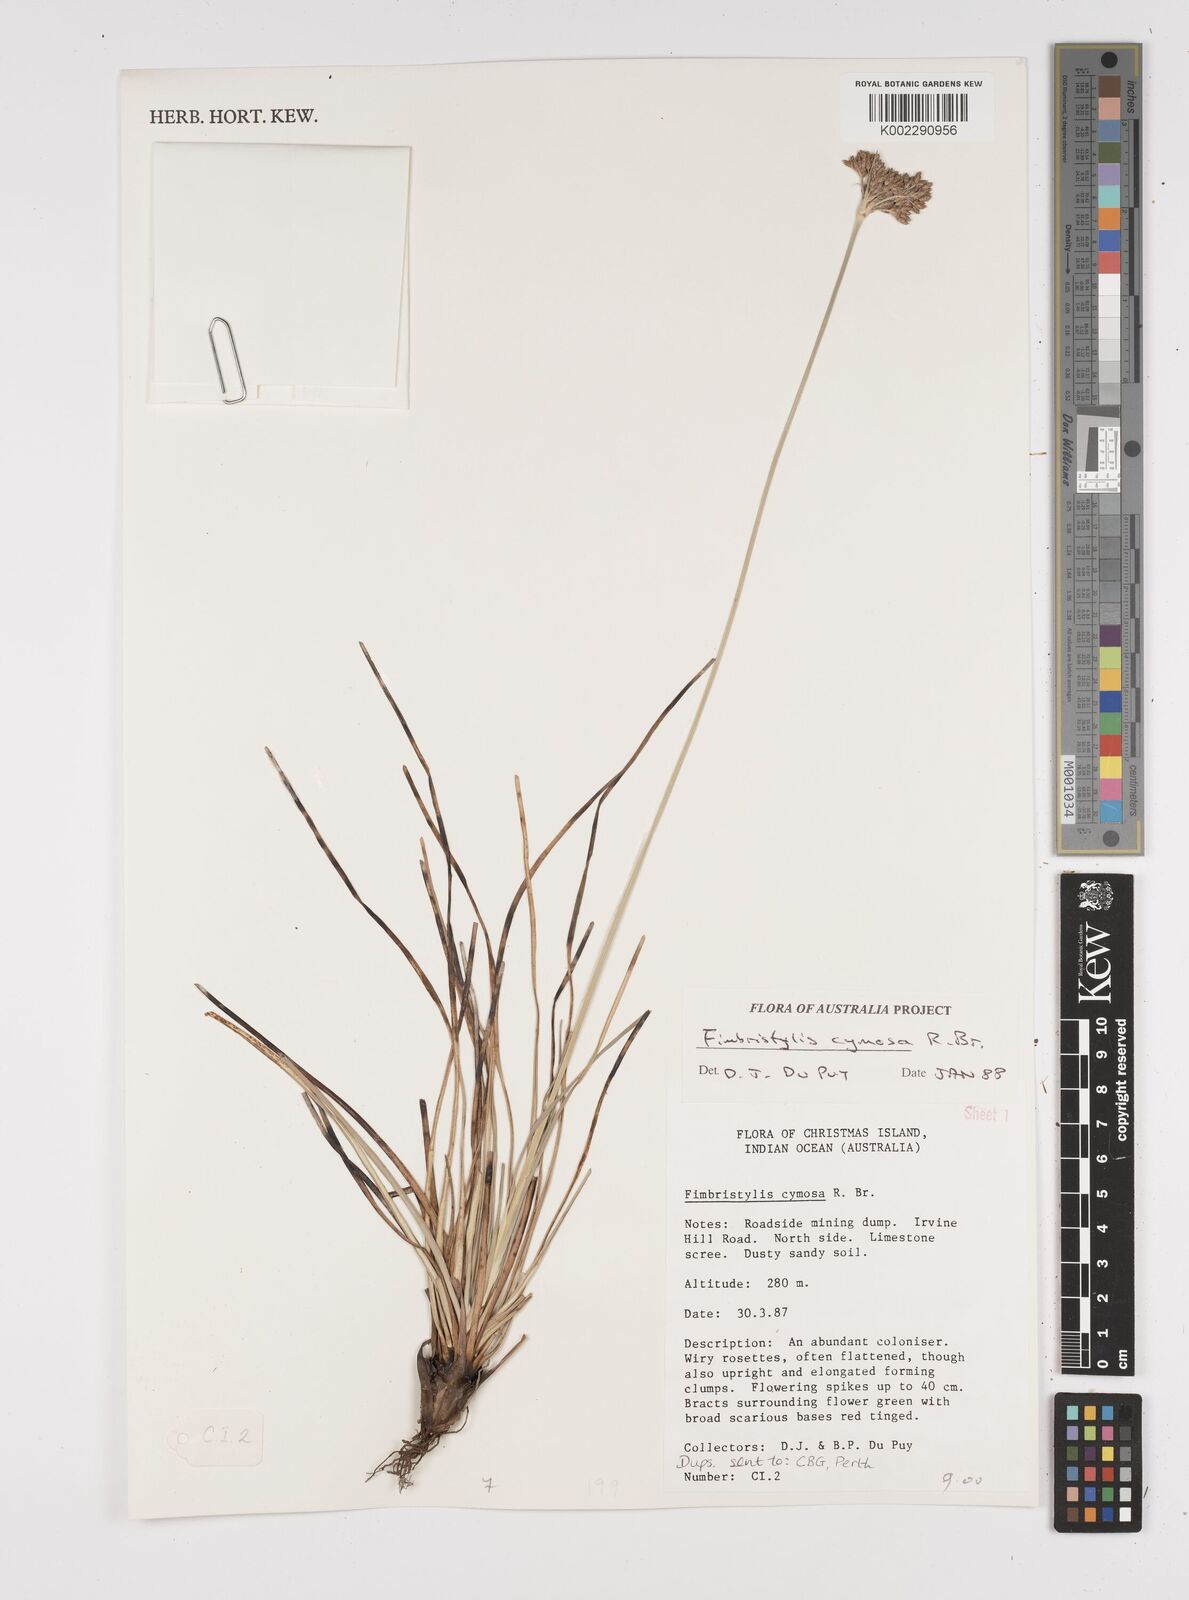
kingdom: Plantae
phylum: Tracheophyta
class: Liliopsida
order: Poales
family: Cyperaceae
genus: Fimbristylis
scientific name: Fimbristylis cymosa
